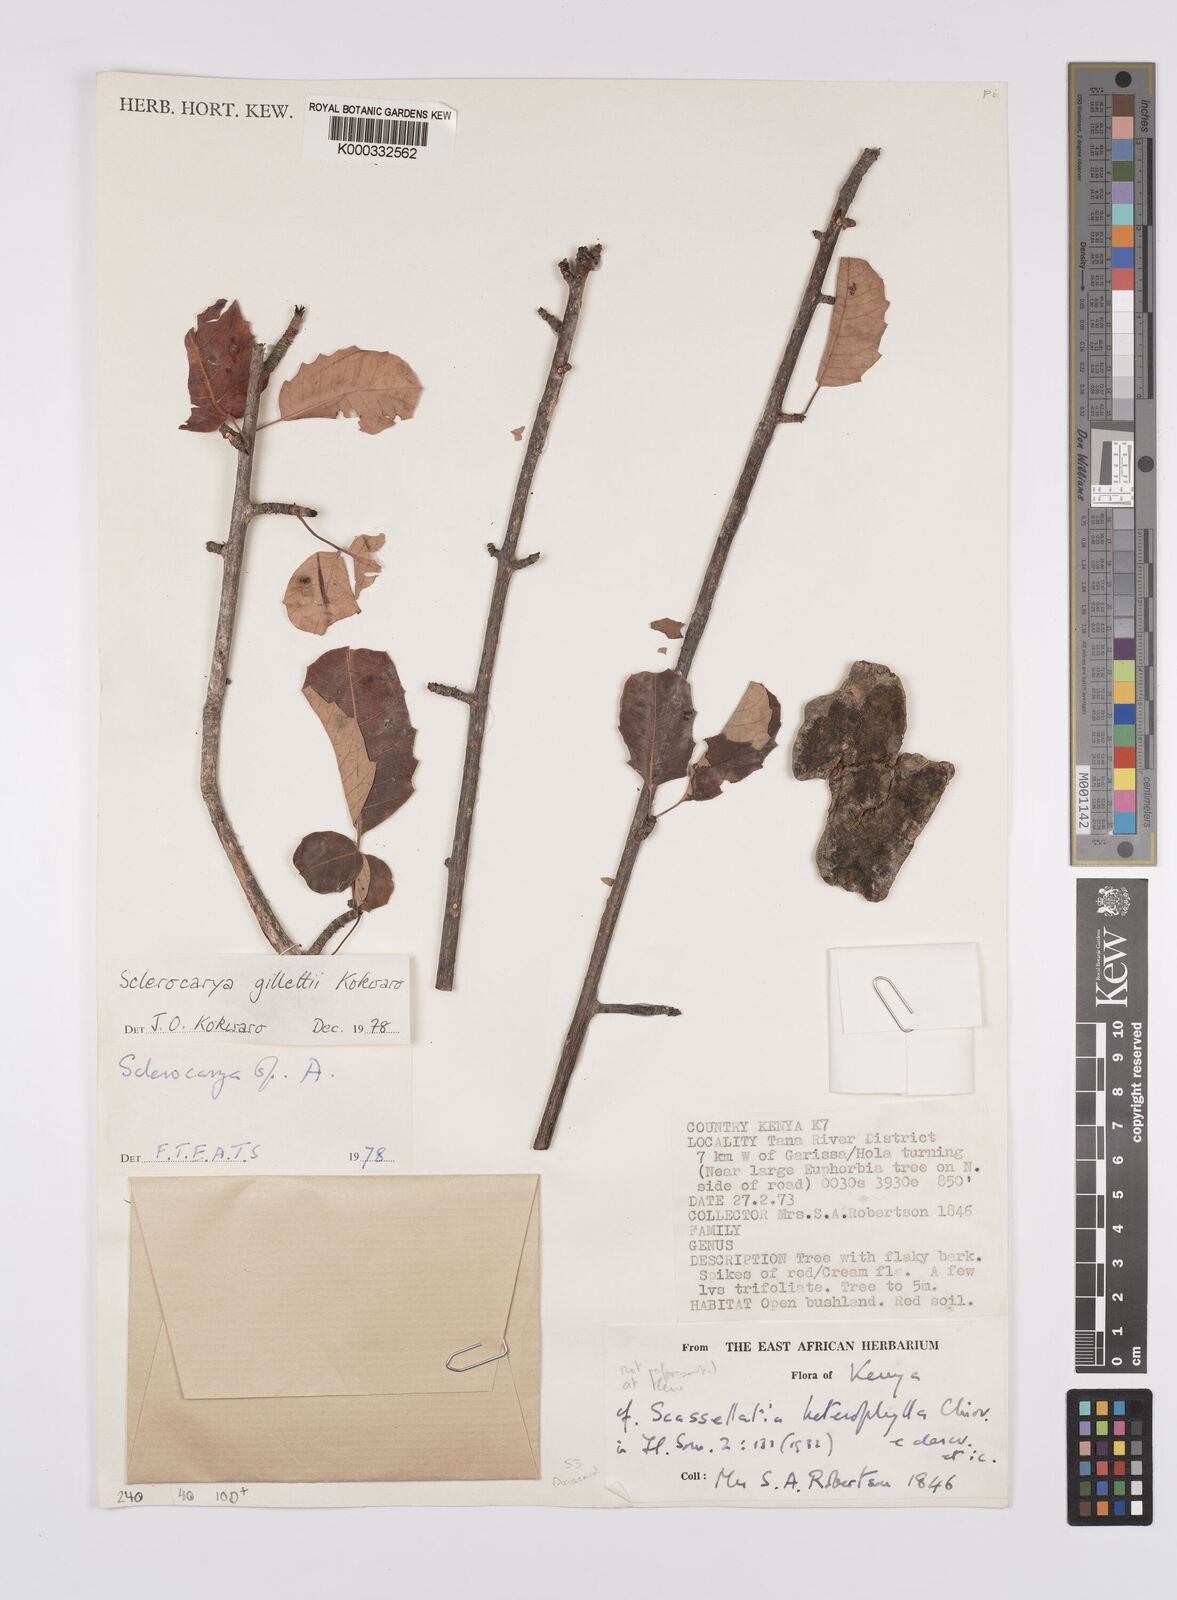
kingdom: Plantae
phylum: Tracheophyta
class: Magnoliopsida
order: Sapindales
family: Anacardiaceae
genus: Sclerocarya
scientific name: Sclerocarya gillettii
